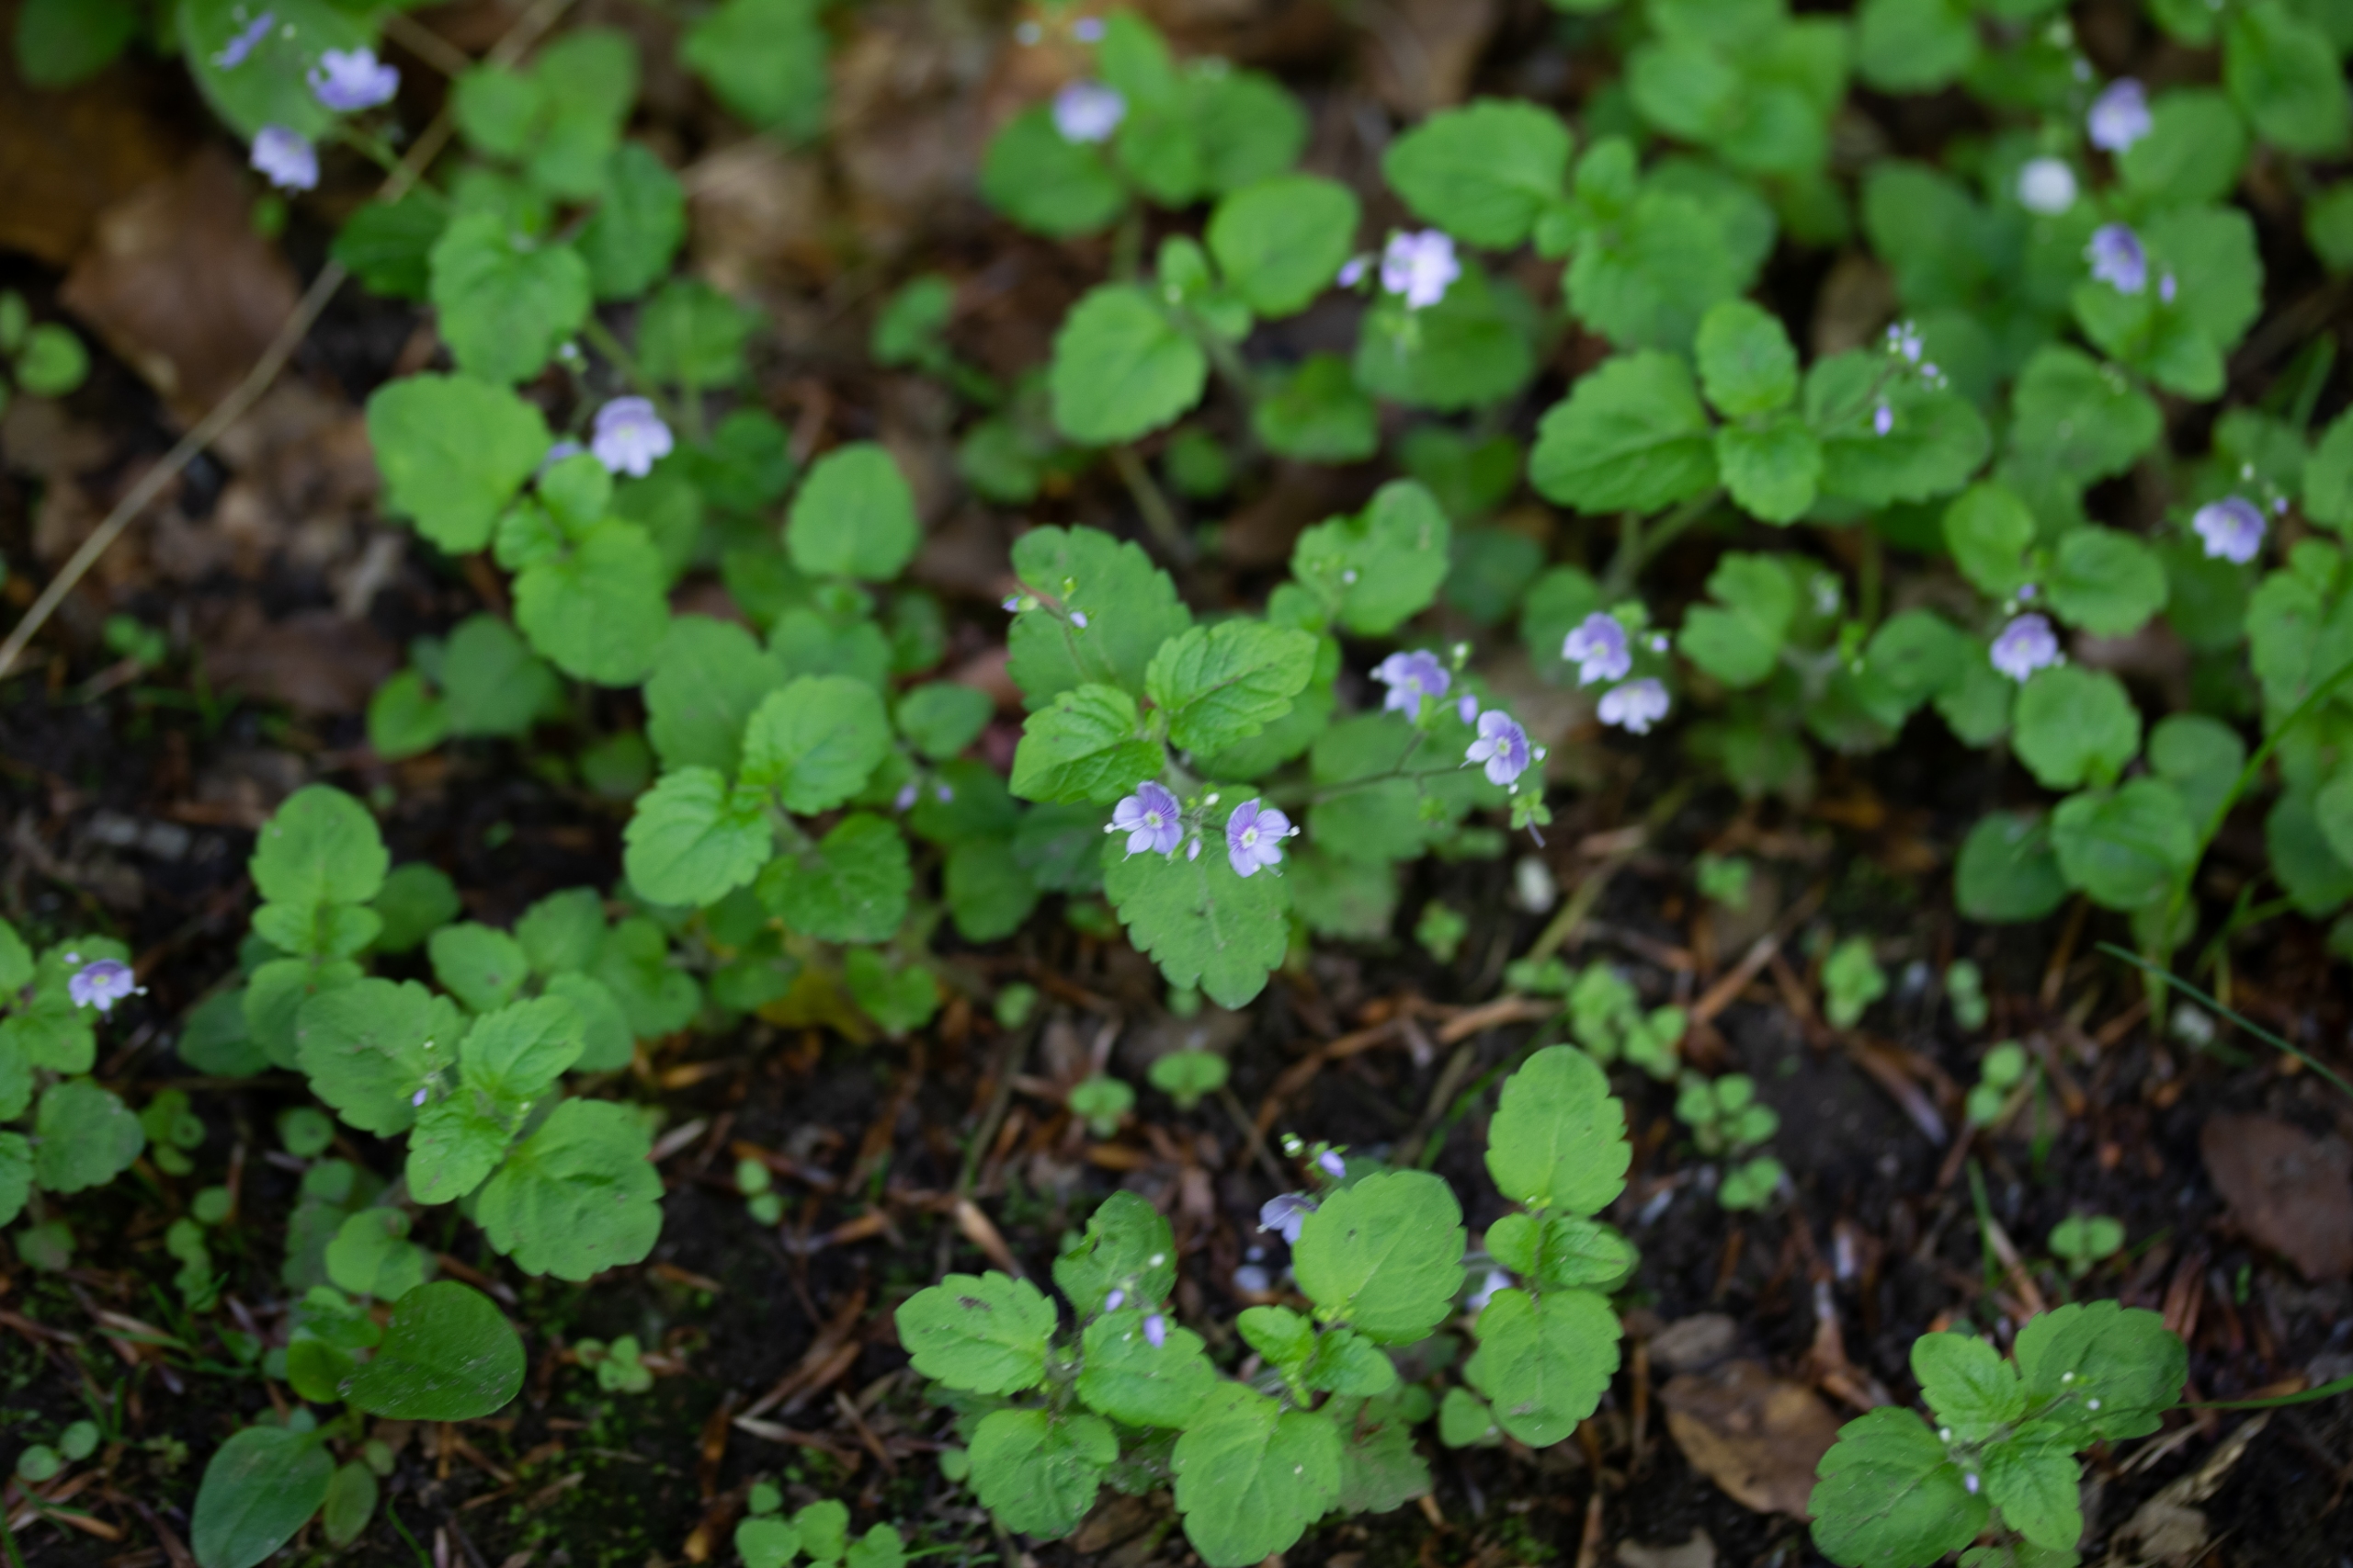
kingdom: Plantae
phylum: Tracheophyta
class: Magnoliopsida
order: Lamiales
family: Plantaginaceae
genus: Veronica
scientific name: Veronica montana
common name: Bjerg-ærenpris
